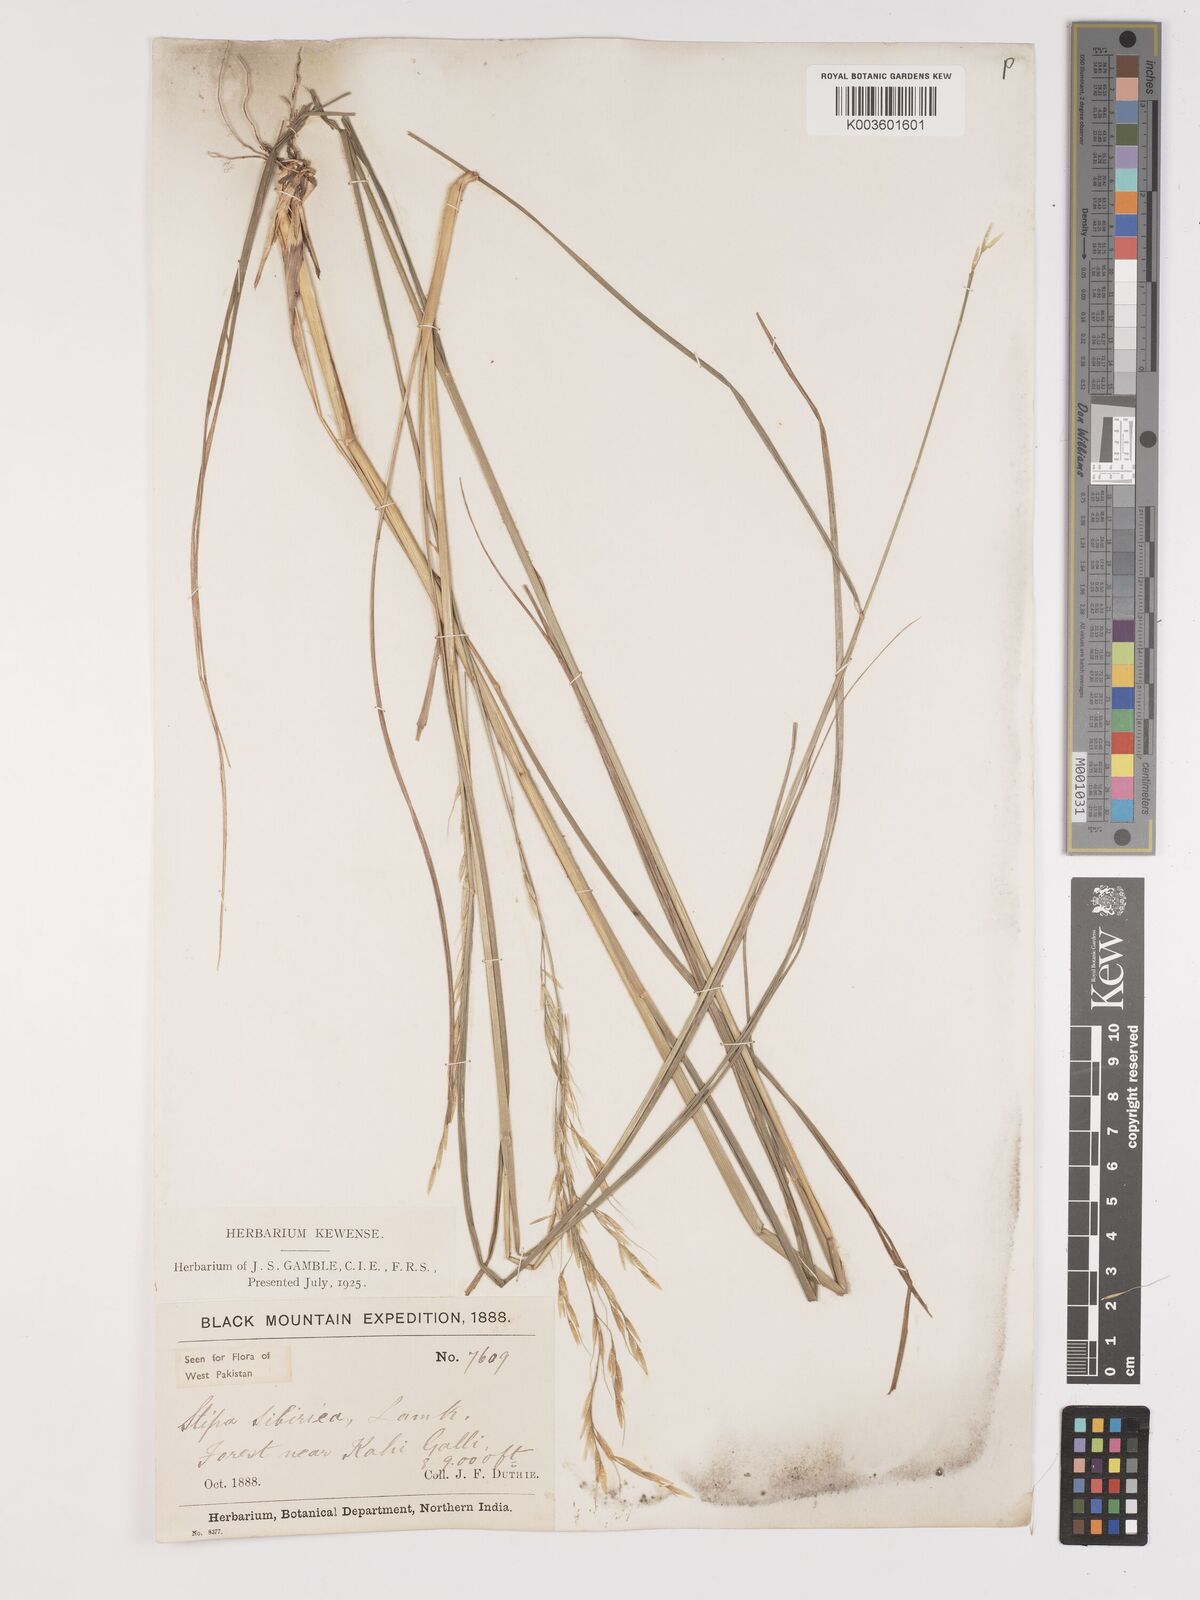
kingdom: Plantae
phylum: Tracheophyta
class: Liliopsida
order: Poales
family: Poaceae
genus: Achnatherum
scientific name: Achnatherum brandisii
